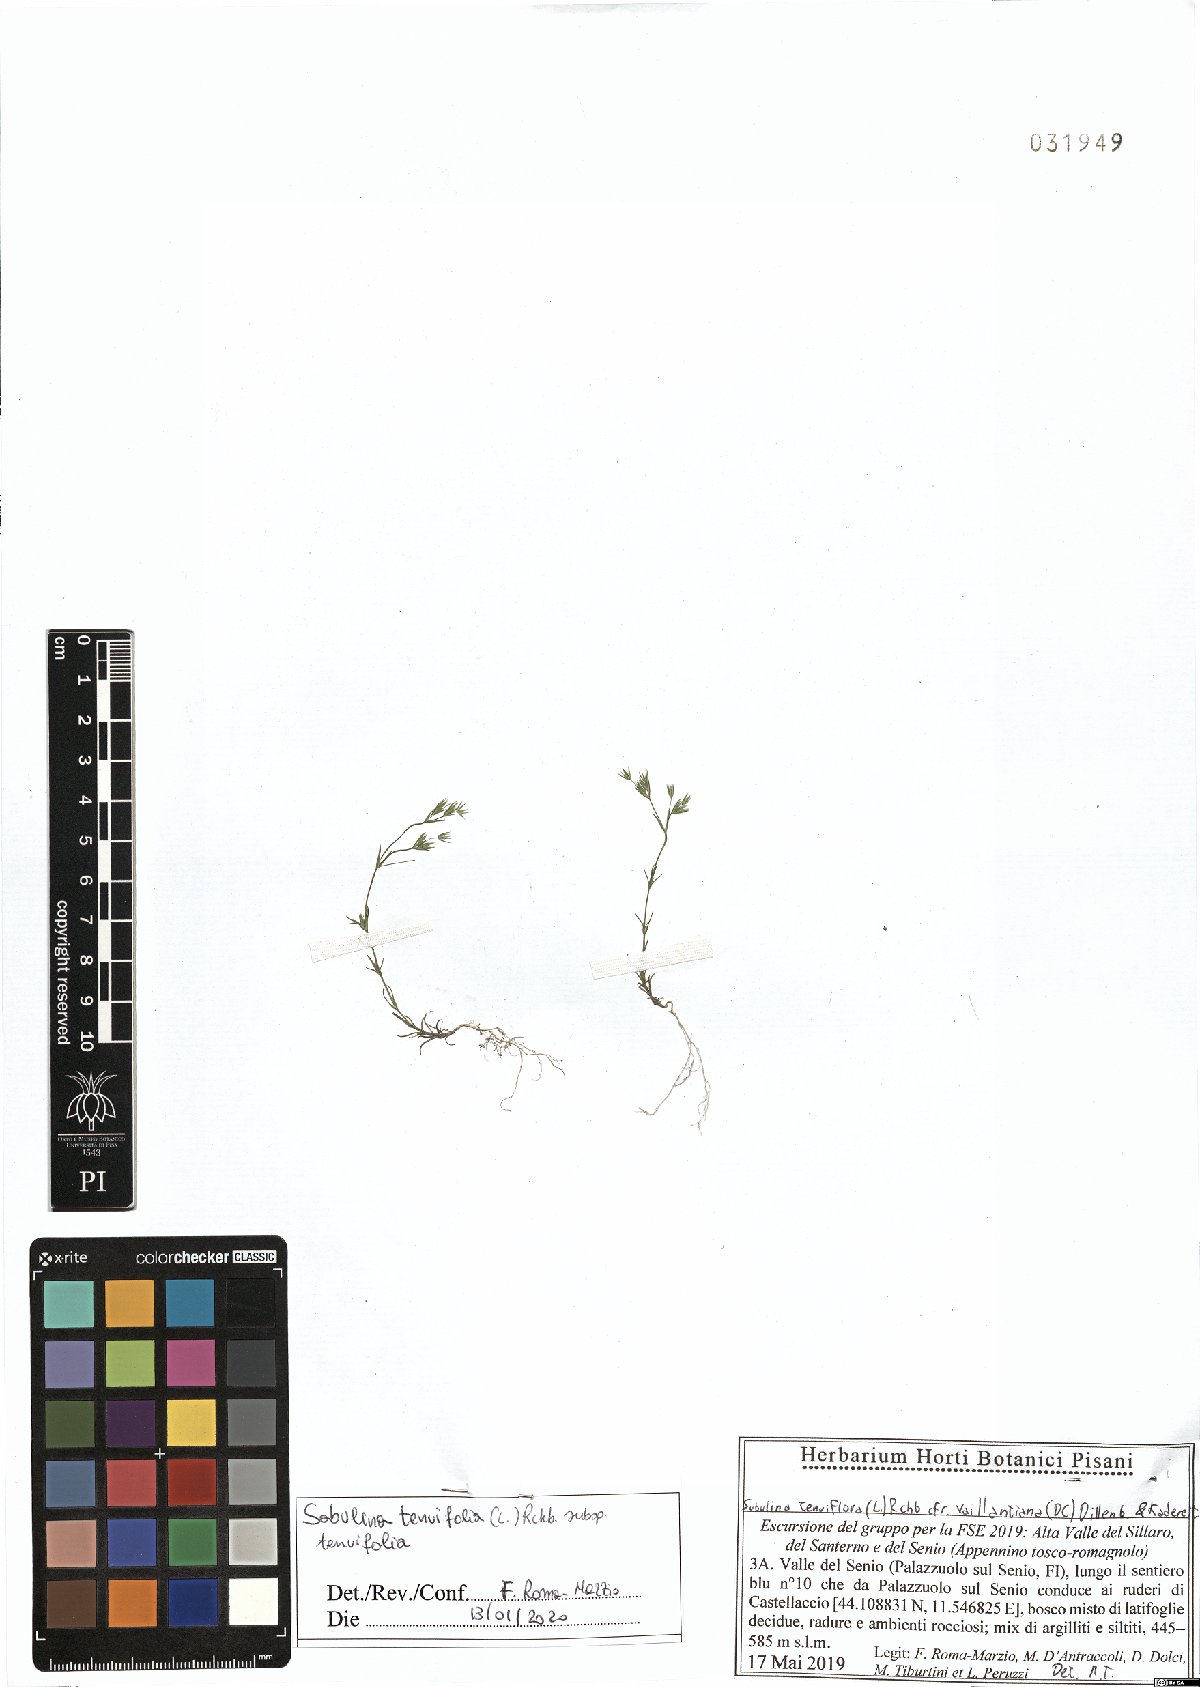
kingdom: Plantae
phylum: Tracheophyta
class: Magnoliopsida
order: Caryophyllales
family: Caryophyllaceae
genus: Sabulina
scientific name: Sabulina tenuifolia
